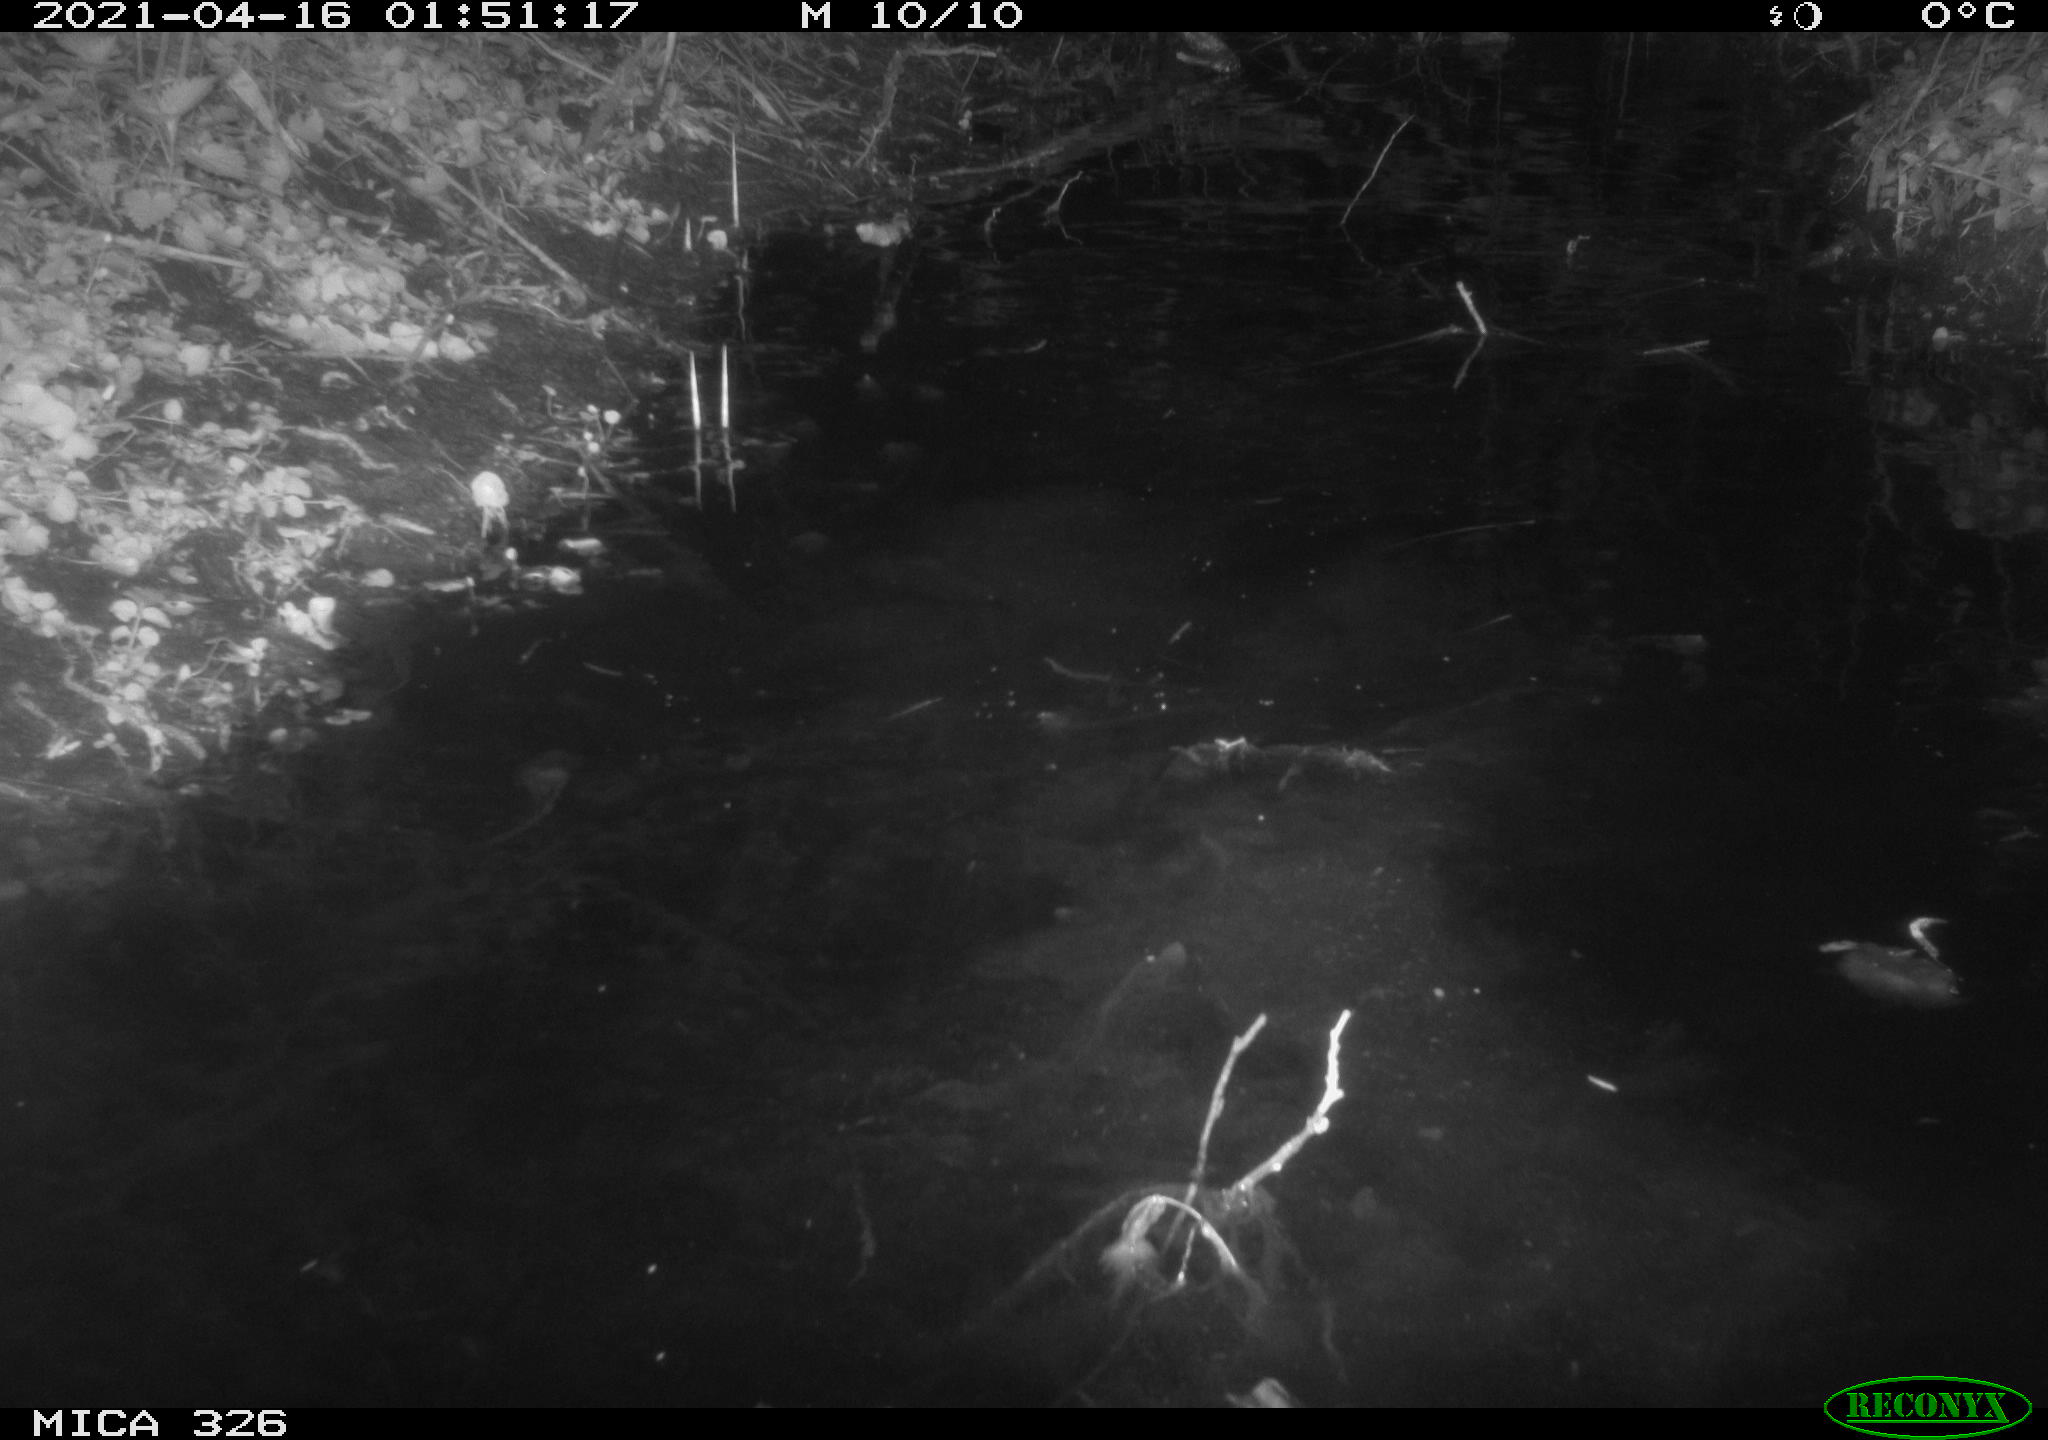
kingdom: Animalia
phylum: Chordata
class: Mammalia
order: Rodentia
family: Myocastoridae
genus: Myocastor
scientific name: Myocastor coypus
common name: Coypu
